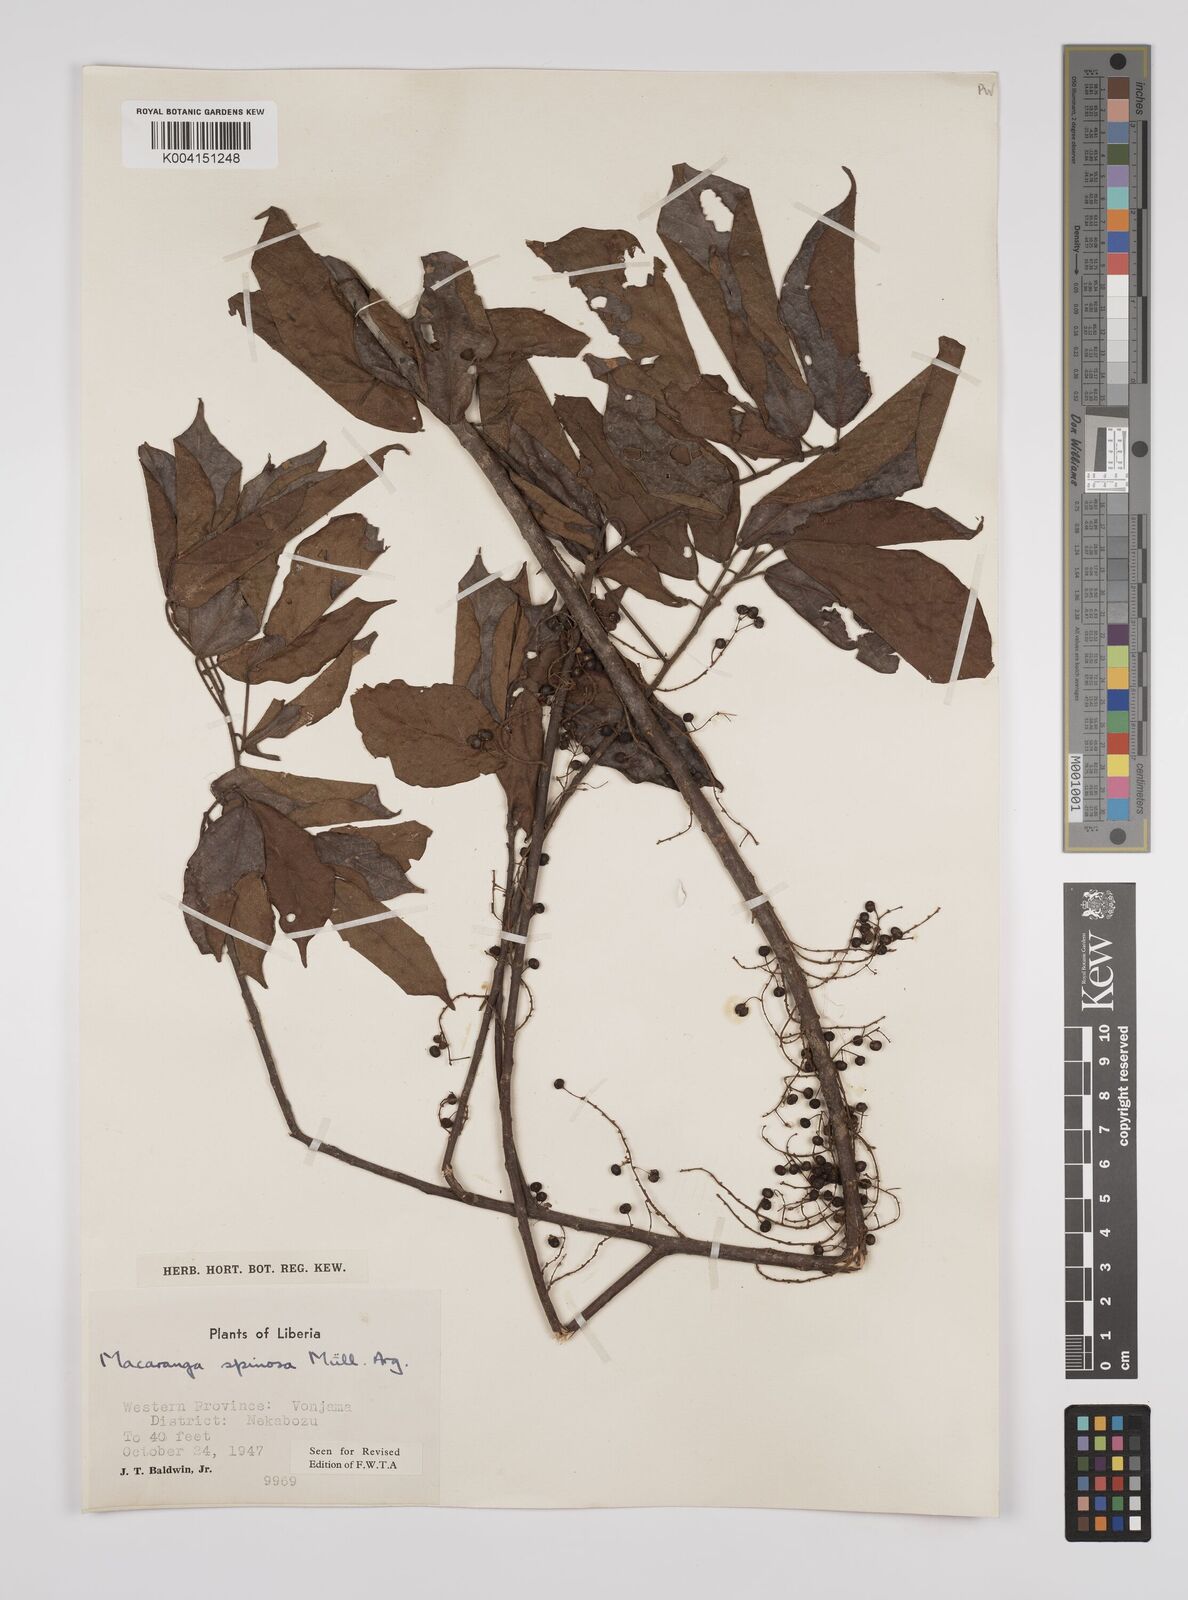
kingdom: Plantae
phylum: Tracheophyta
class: Magnoliopsida
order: Malpighiales
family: Euphorbiaceae
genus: Macaranga
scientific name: Macaranga spinosa
